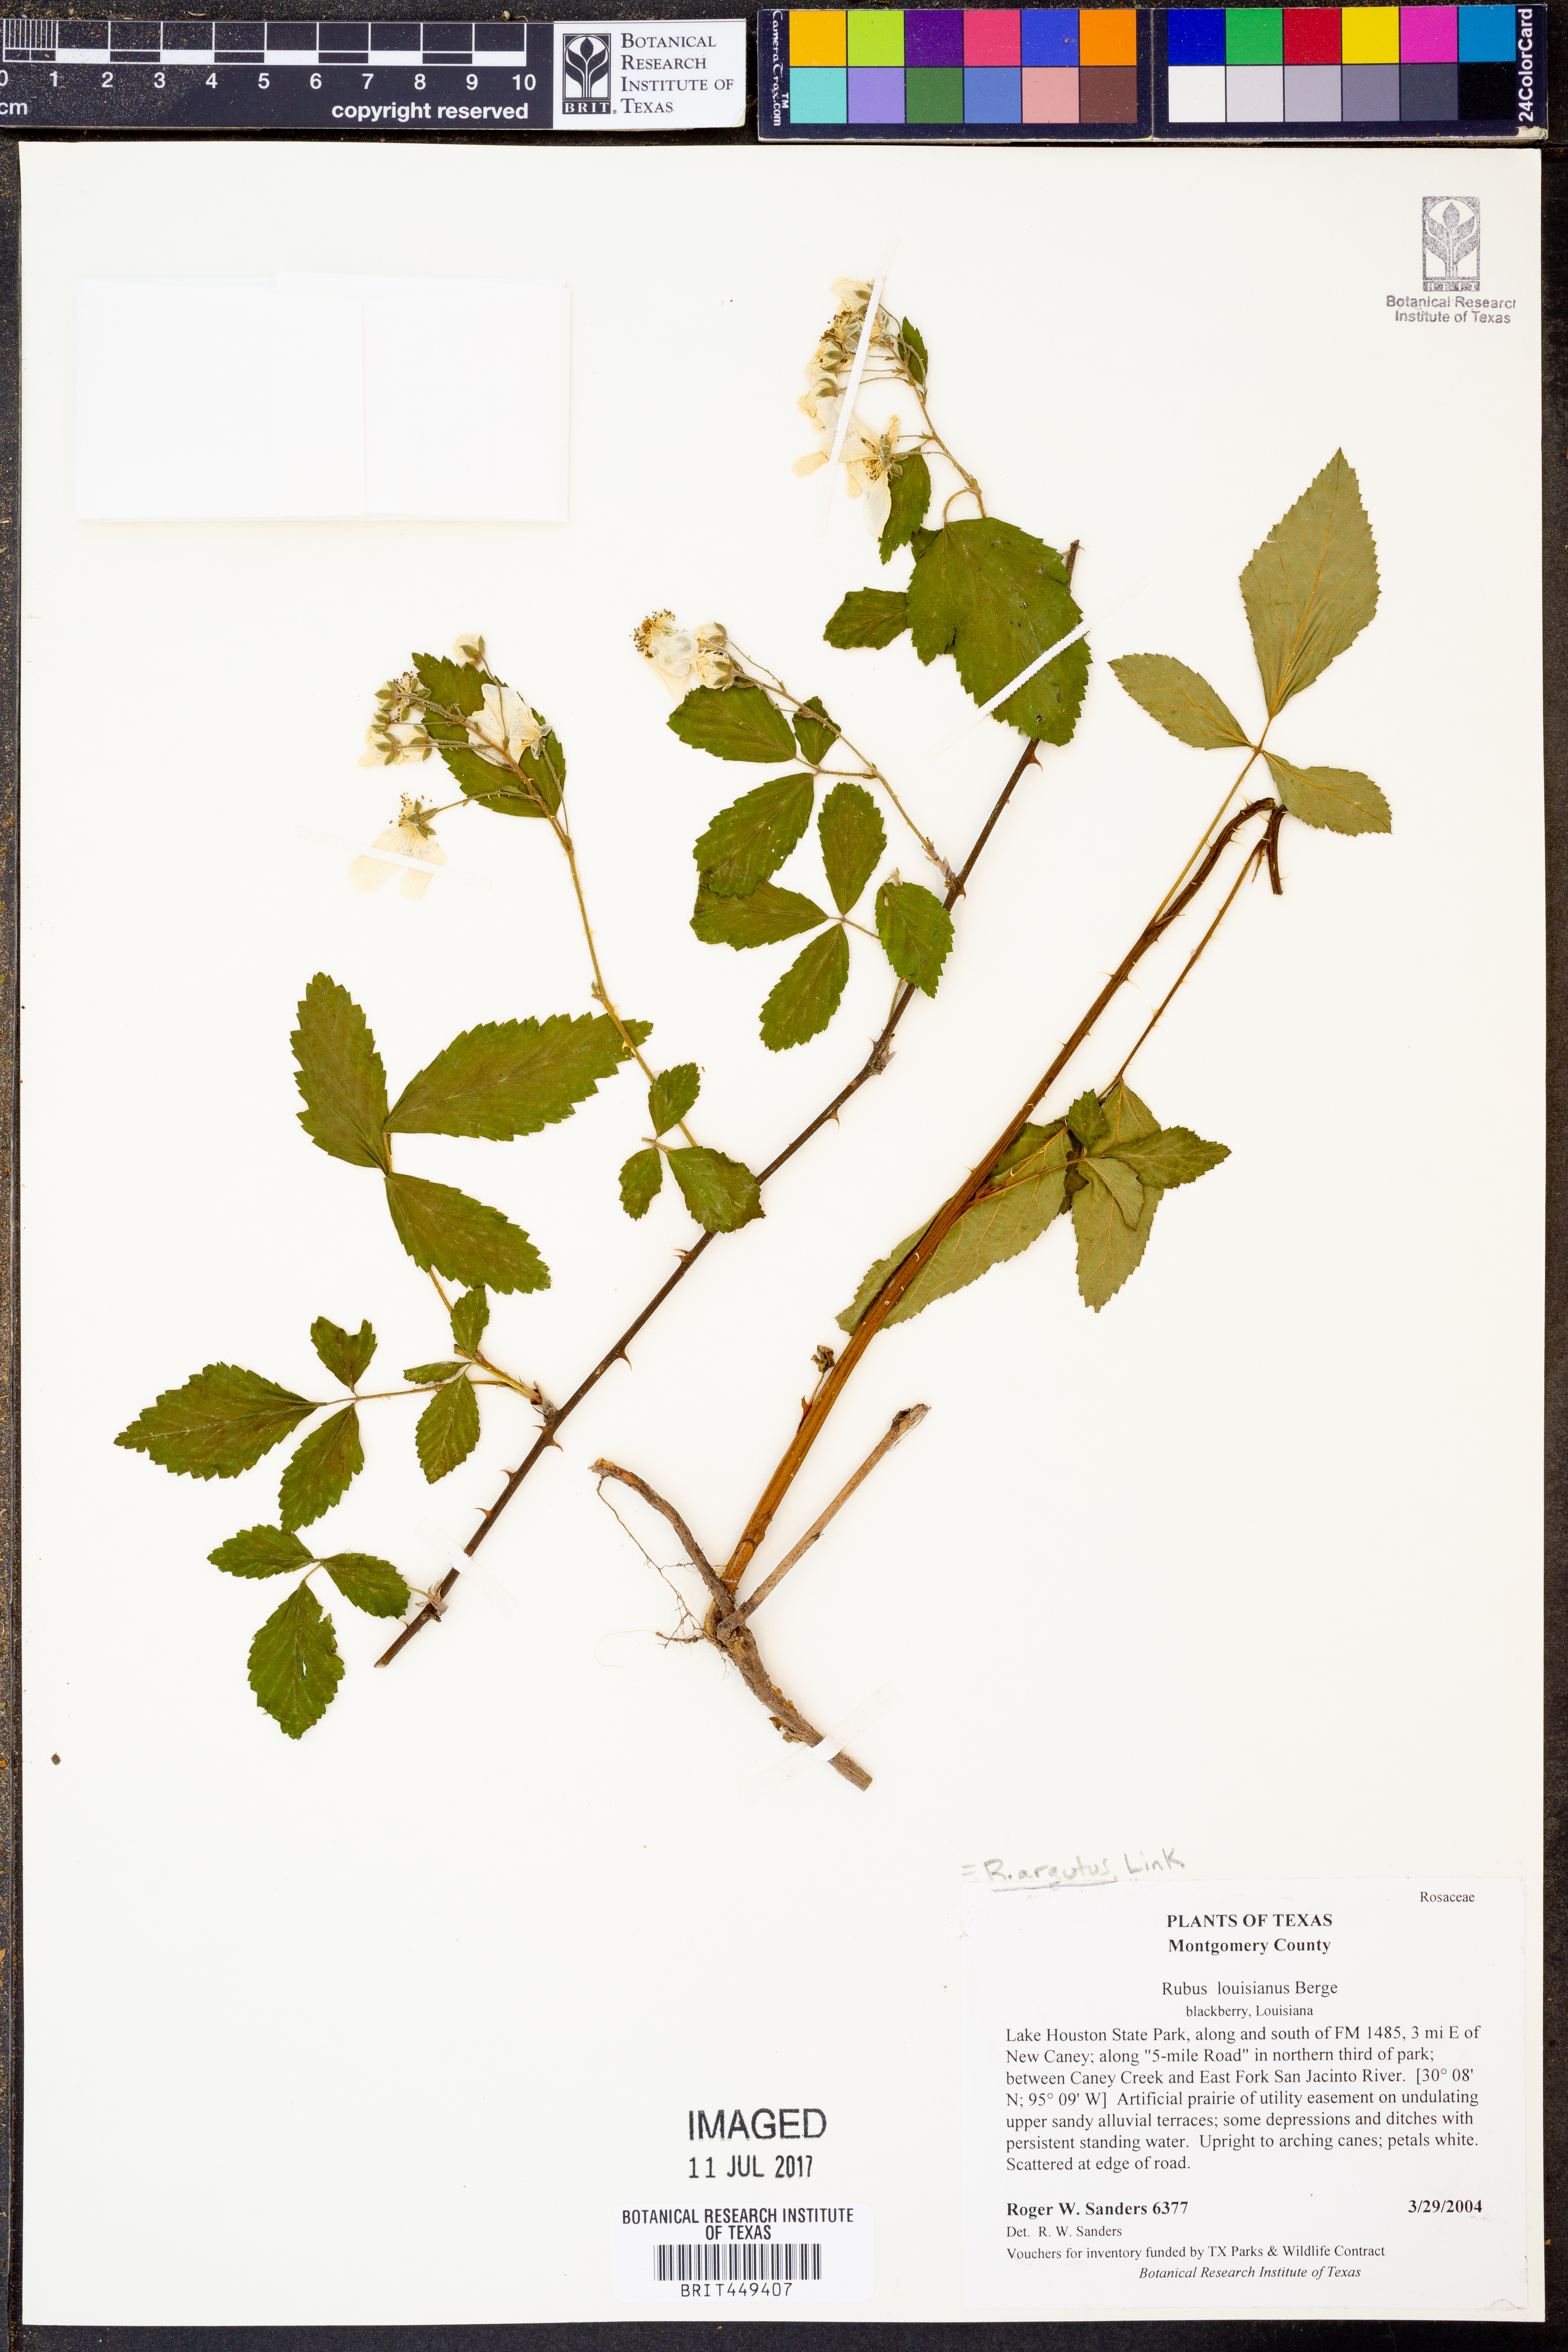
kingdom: Plantae
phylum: Tracheophyta
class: Magnoliopsida
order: Rosales
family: Rosaceae
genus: Rubus
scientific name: Rubus argutus
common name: Sawtooth blackberry
